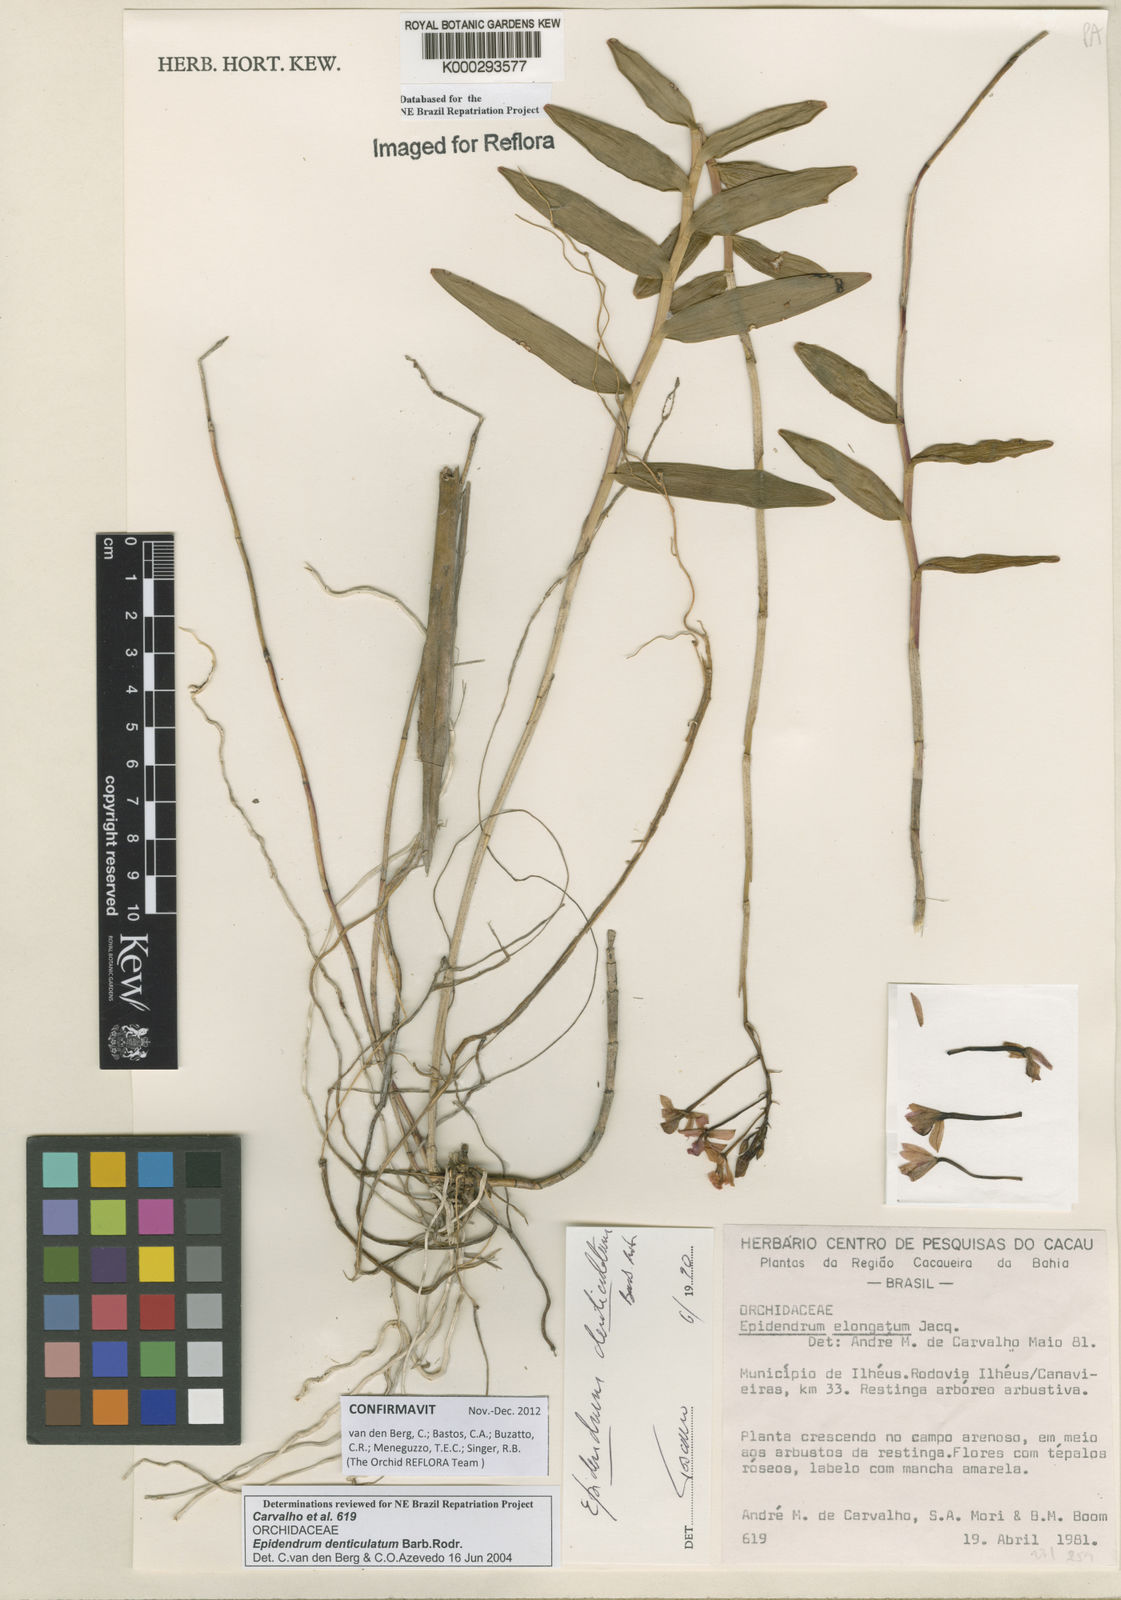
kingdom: Plantae
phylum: Tracheophyta
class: Liliopsida
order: Asparagales
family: Orchidaceae
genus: Epidendrum
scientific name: Epidendrum denticulatum
